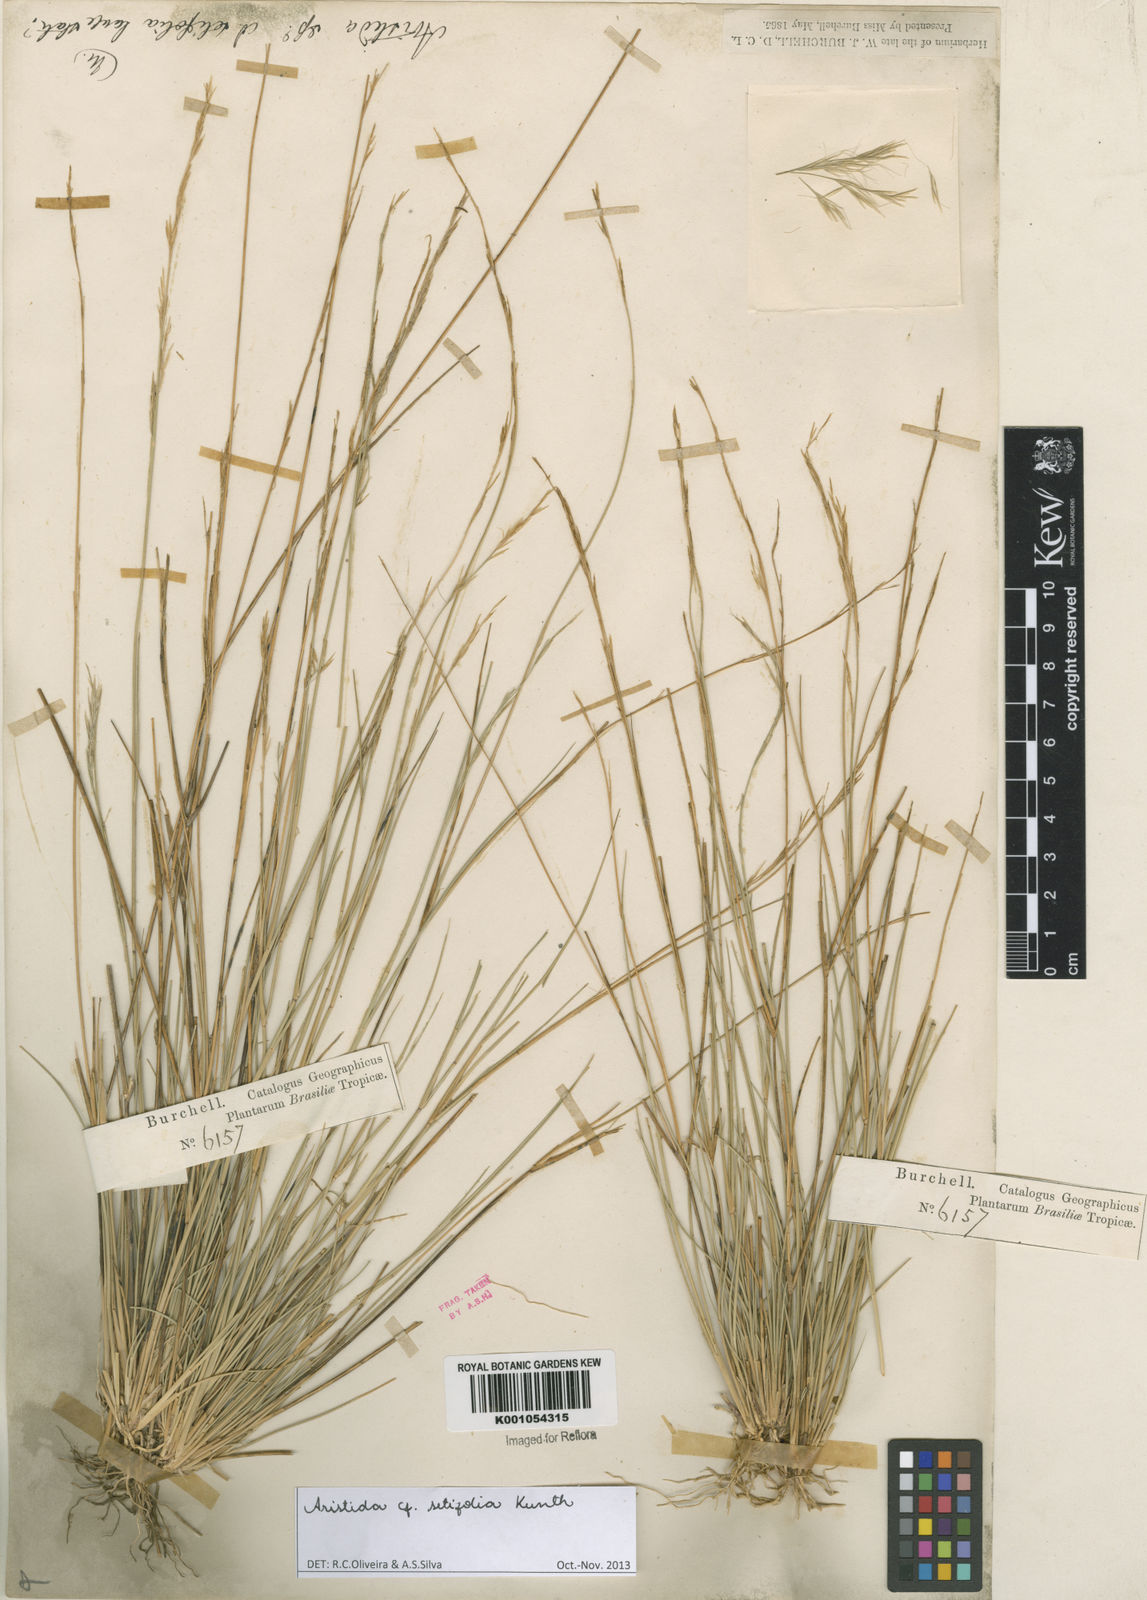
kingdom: Plantae
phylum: Tracheophyta
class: Liliopsida
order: Poales
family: Poaceae
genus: Aristida
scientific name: Aristida setifolia
